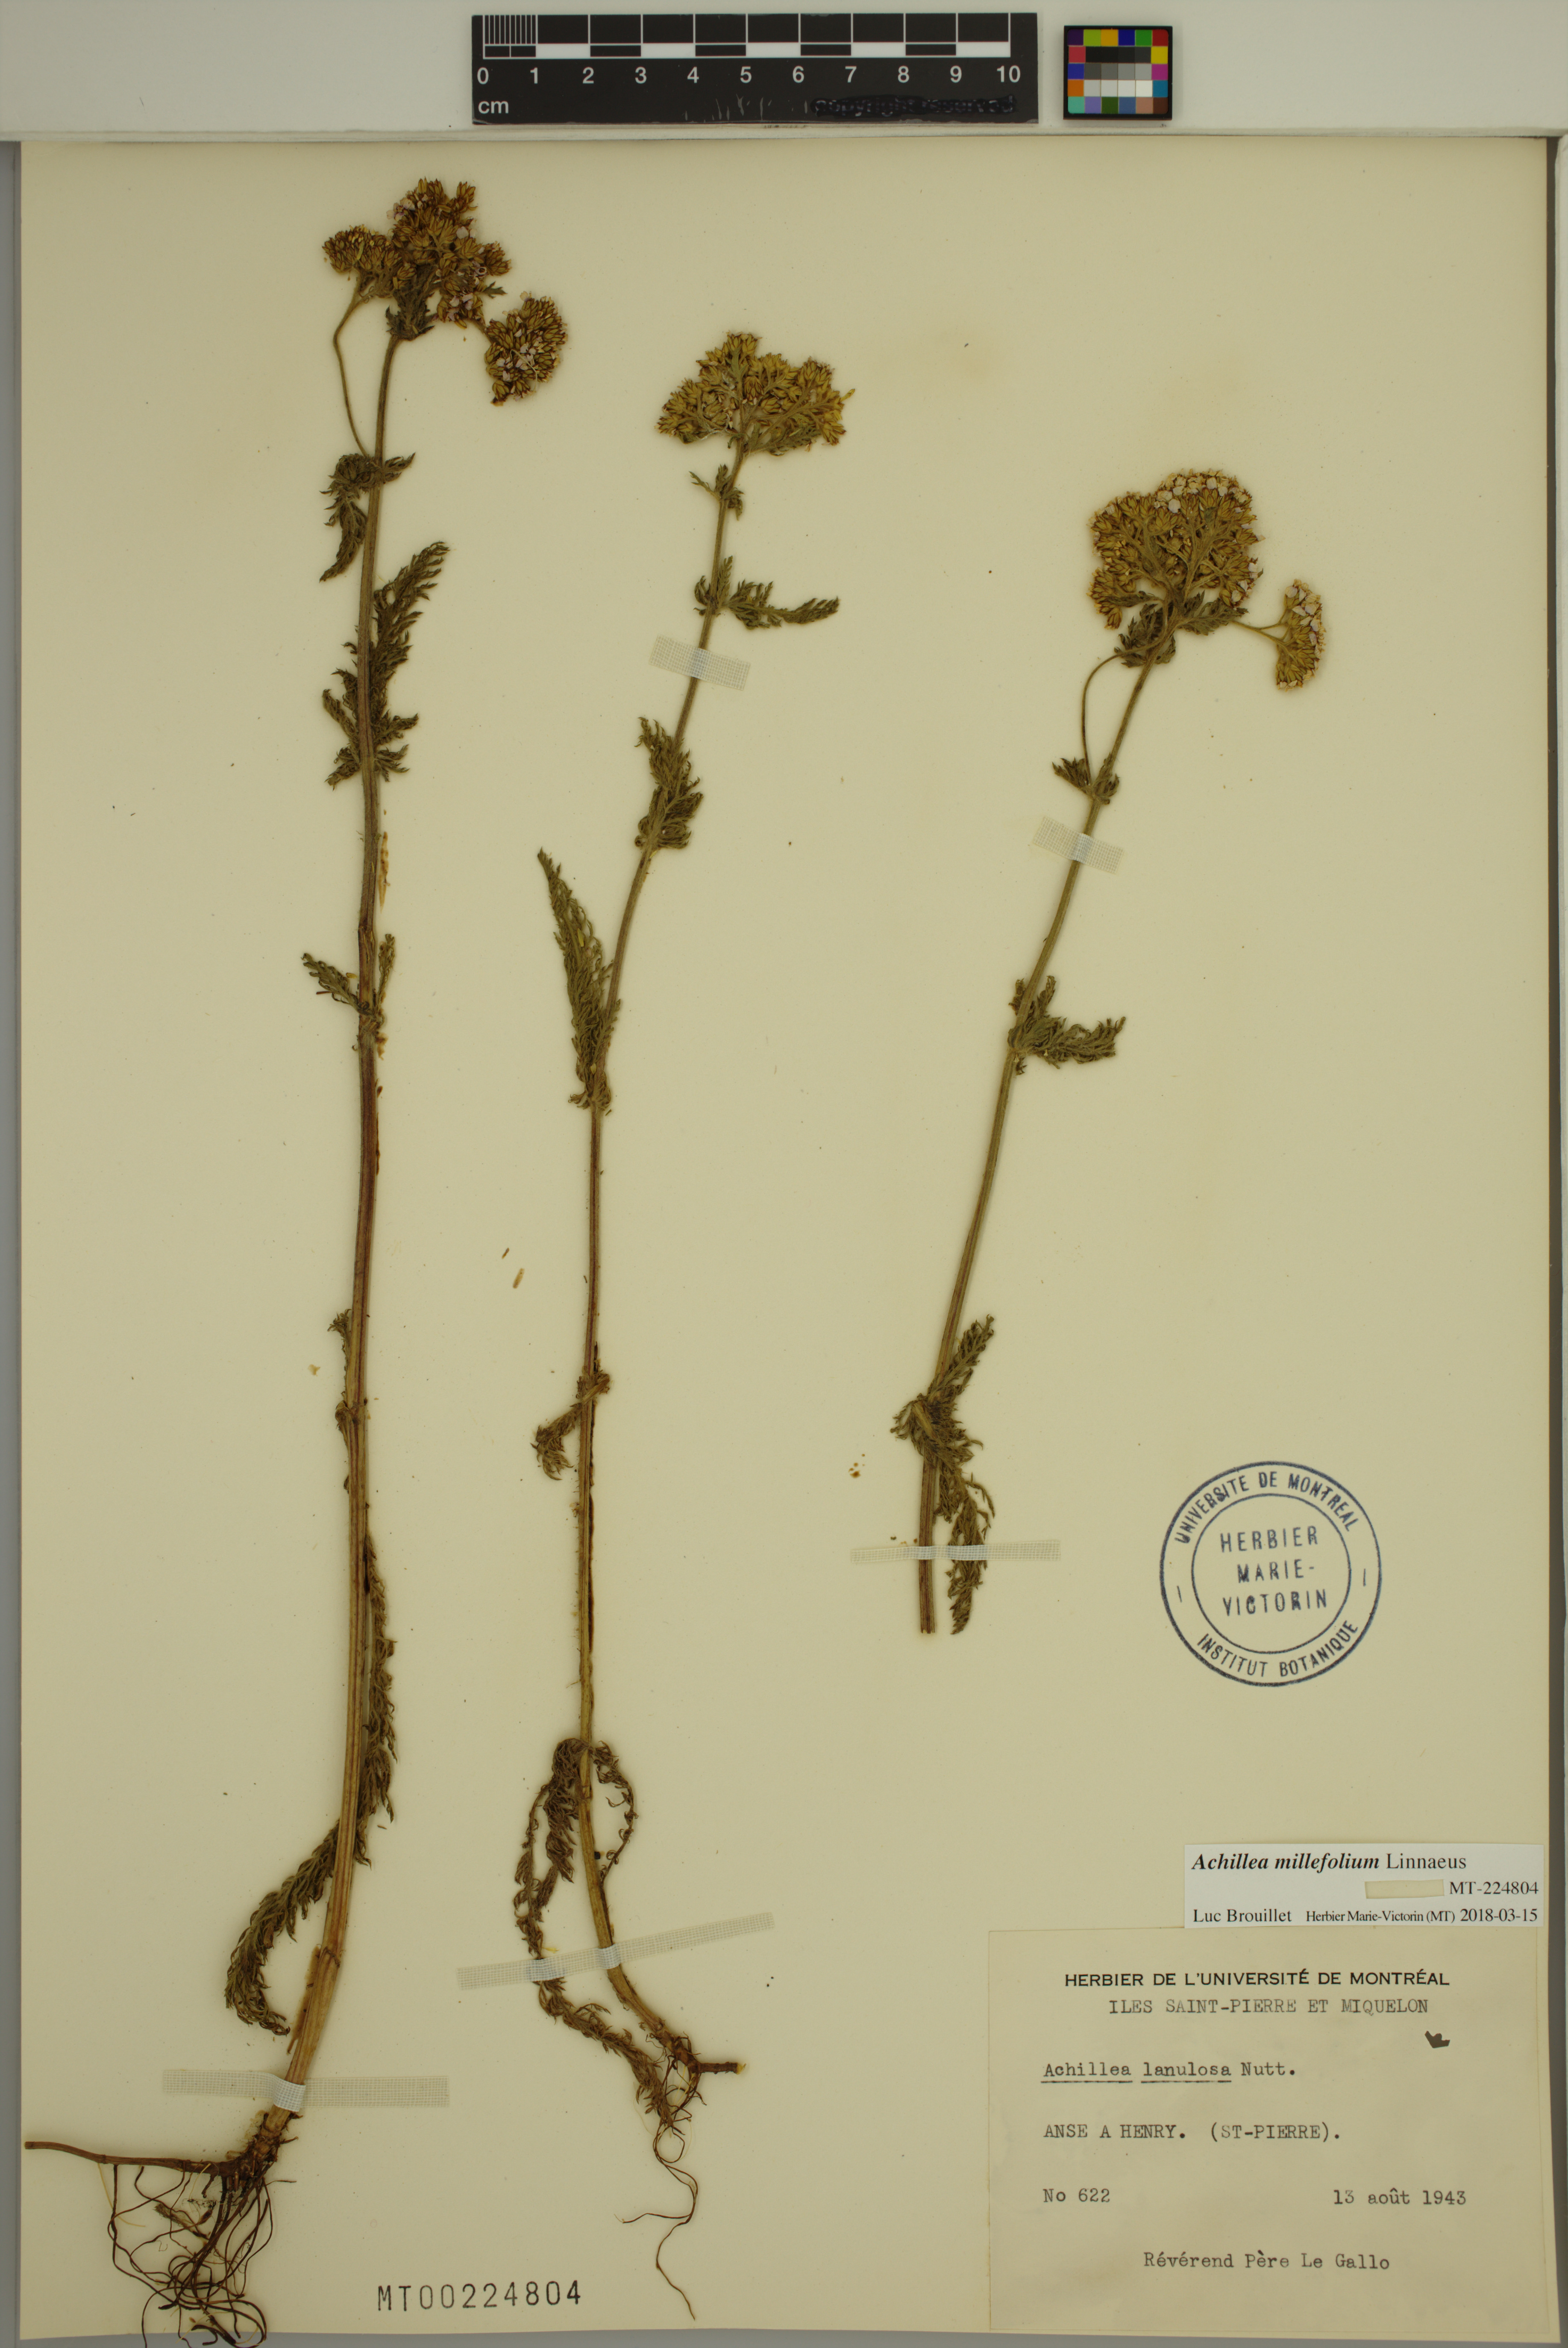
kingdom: Plantae
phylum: Tracheophyta
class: Magnoliopsida
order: Asterales
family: Asteraceae
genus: Achillea
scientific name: Achillea millefolium
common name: Yarrow
